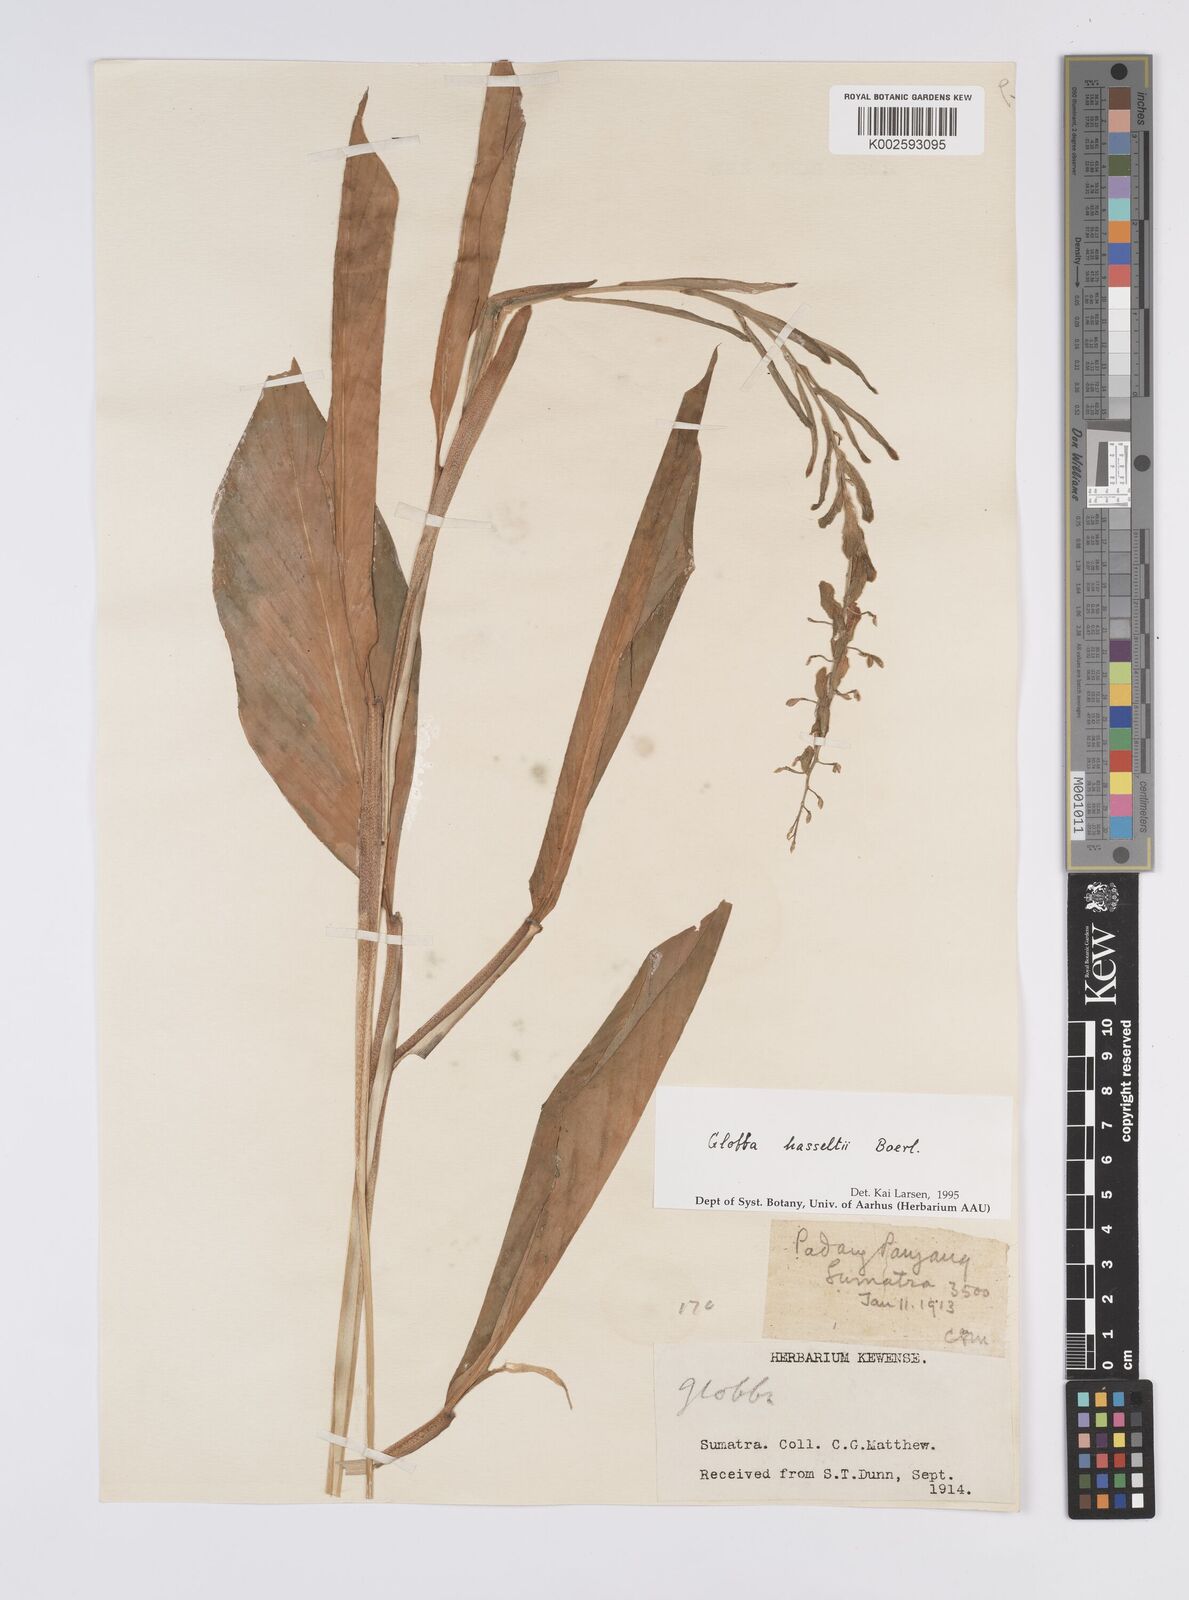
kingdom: Plantae
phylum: Tracheophyta
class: Liliopsida
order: Zingiberales
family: Zingiberaceae
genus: Globba
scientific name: Globba hasseltii
